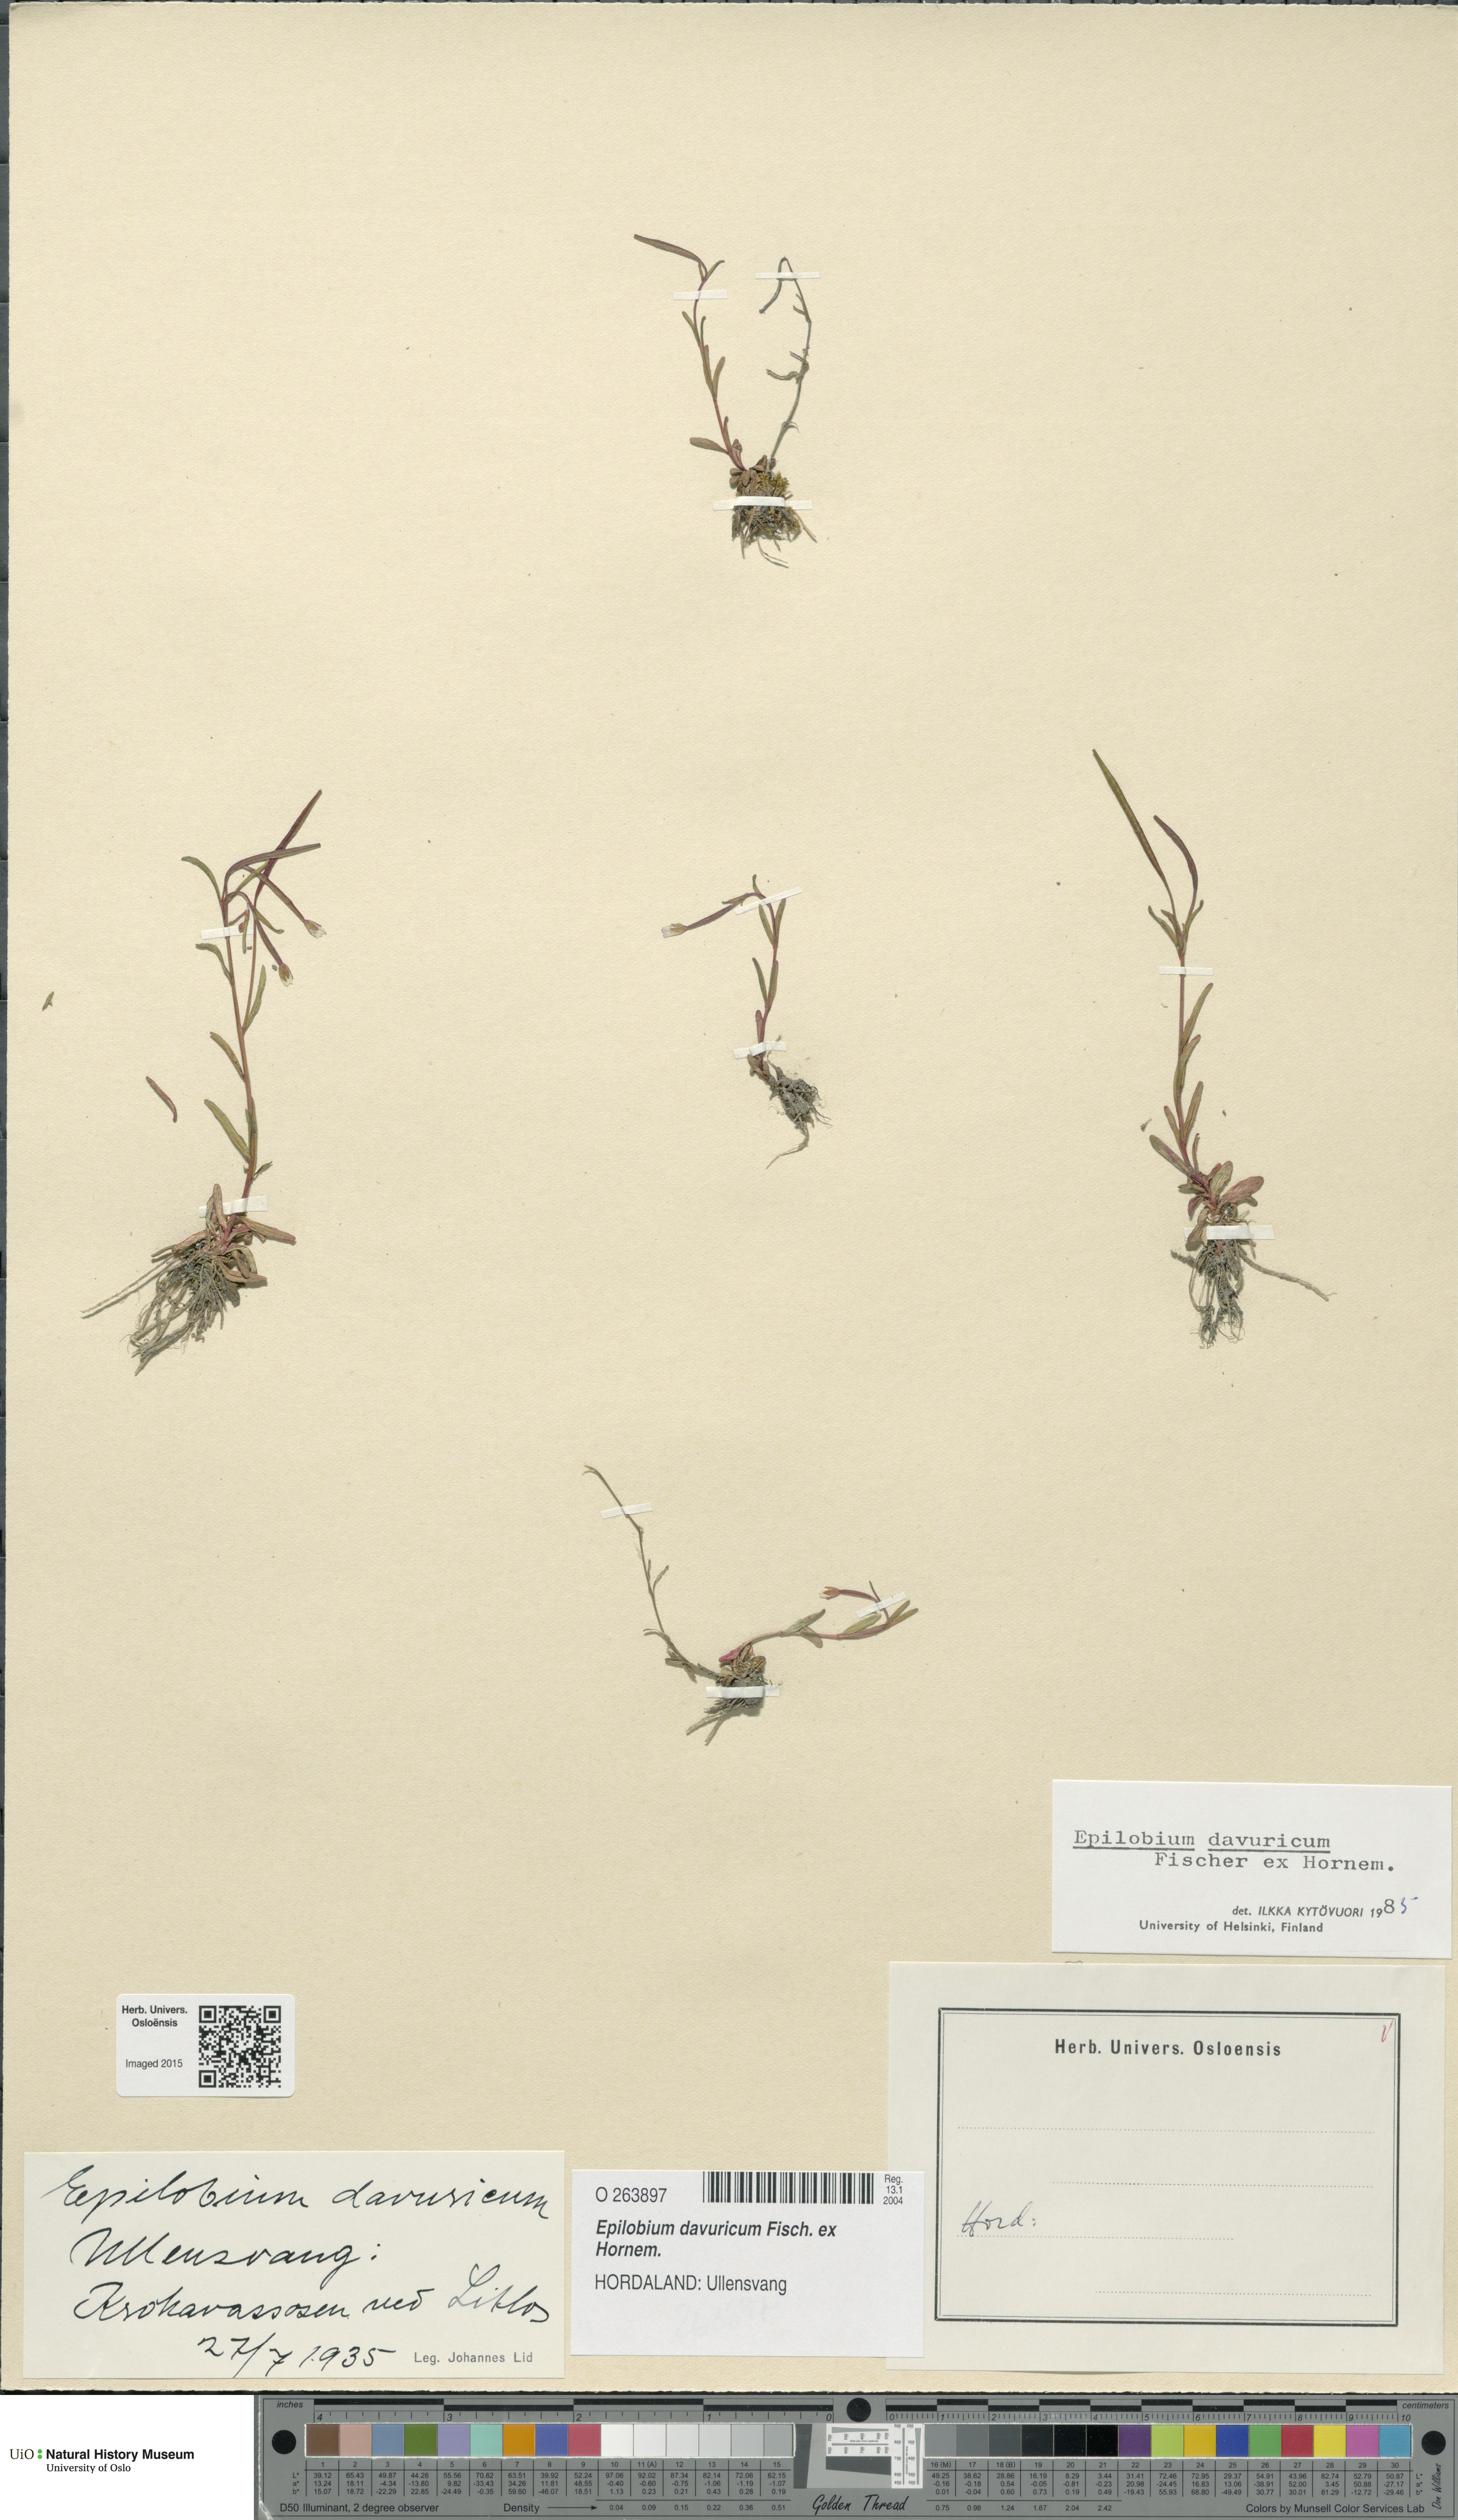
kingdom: Plantae
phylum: Tracheophyta
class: Magnoliopsida
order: Myrtales
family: Onagraceae
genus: Epilobium
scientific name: Epilobium davuricum
